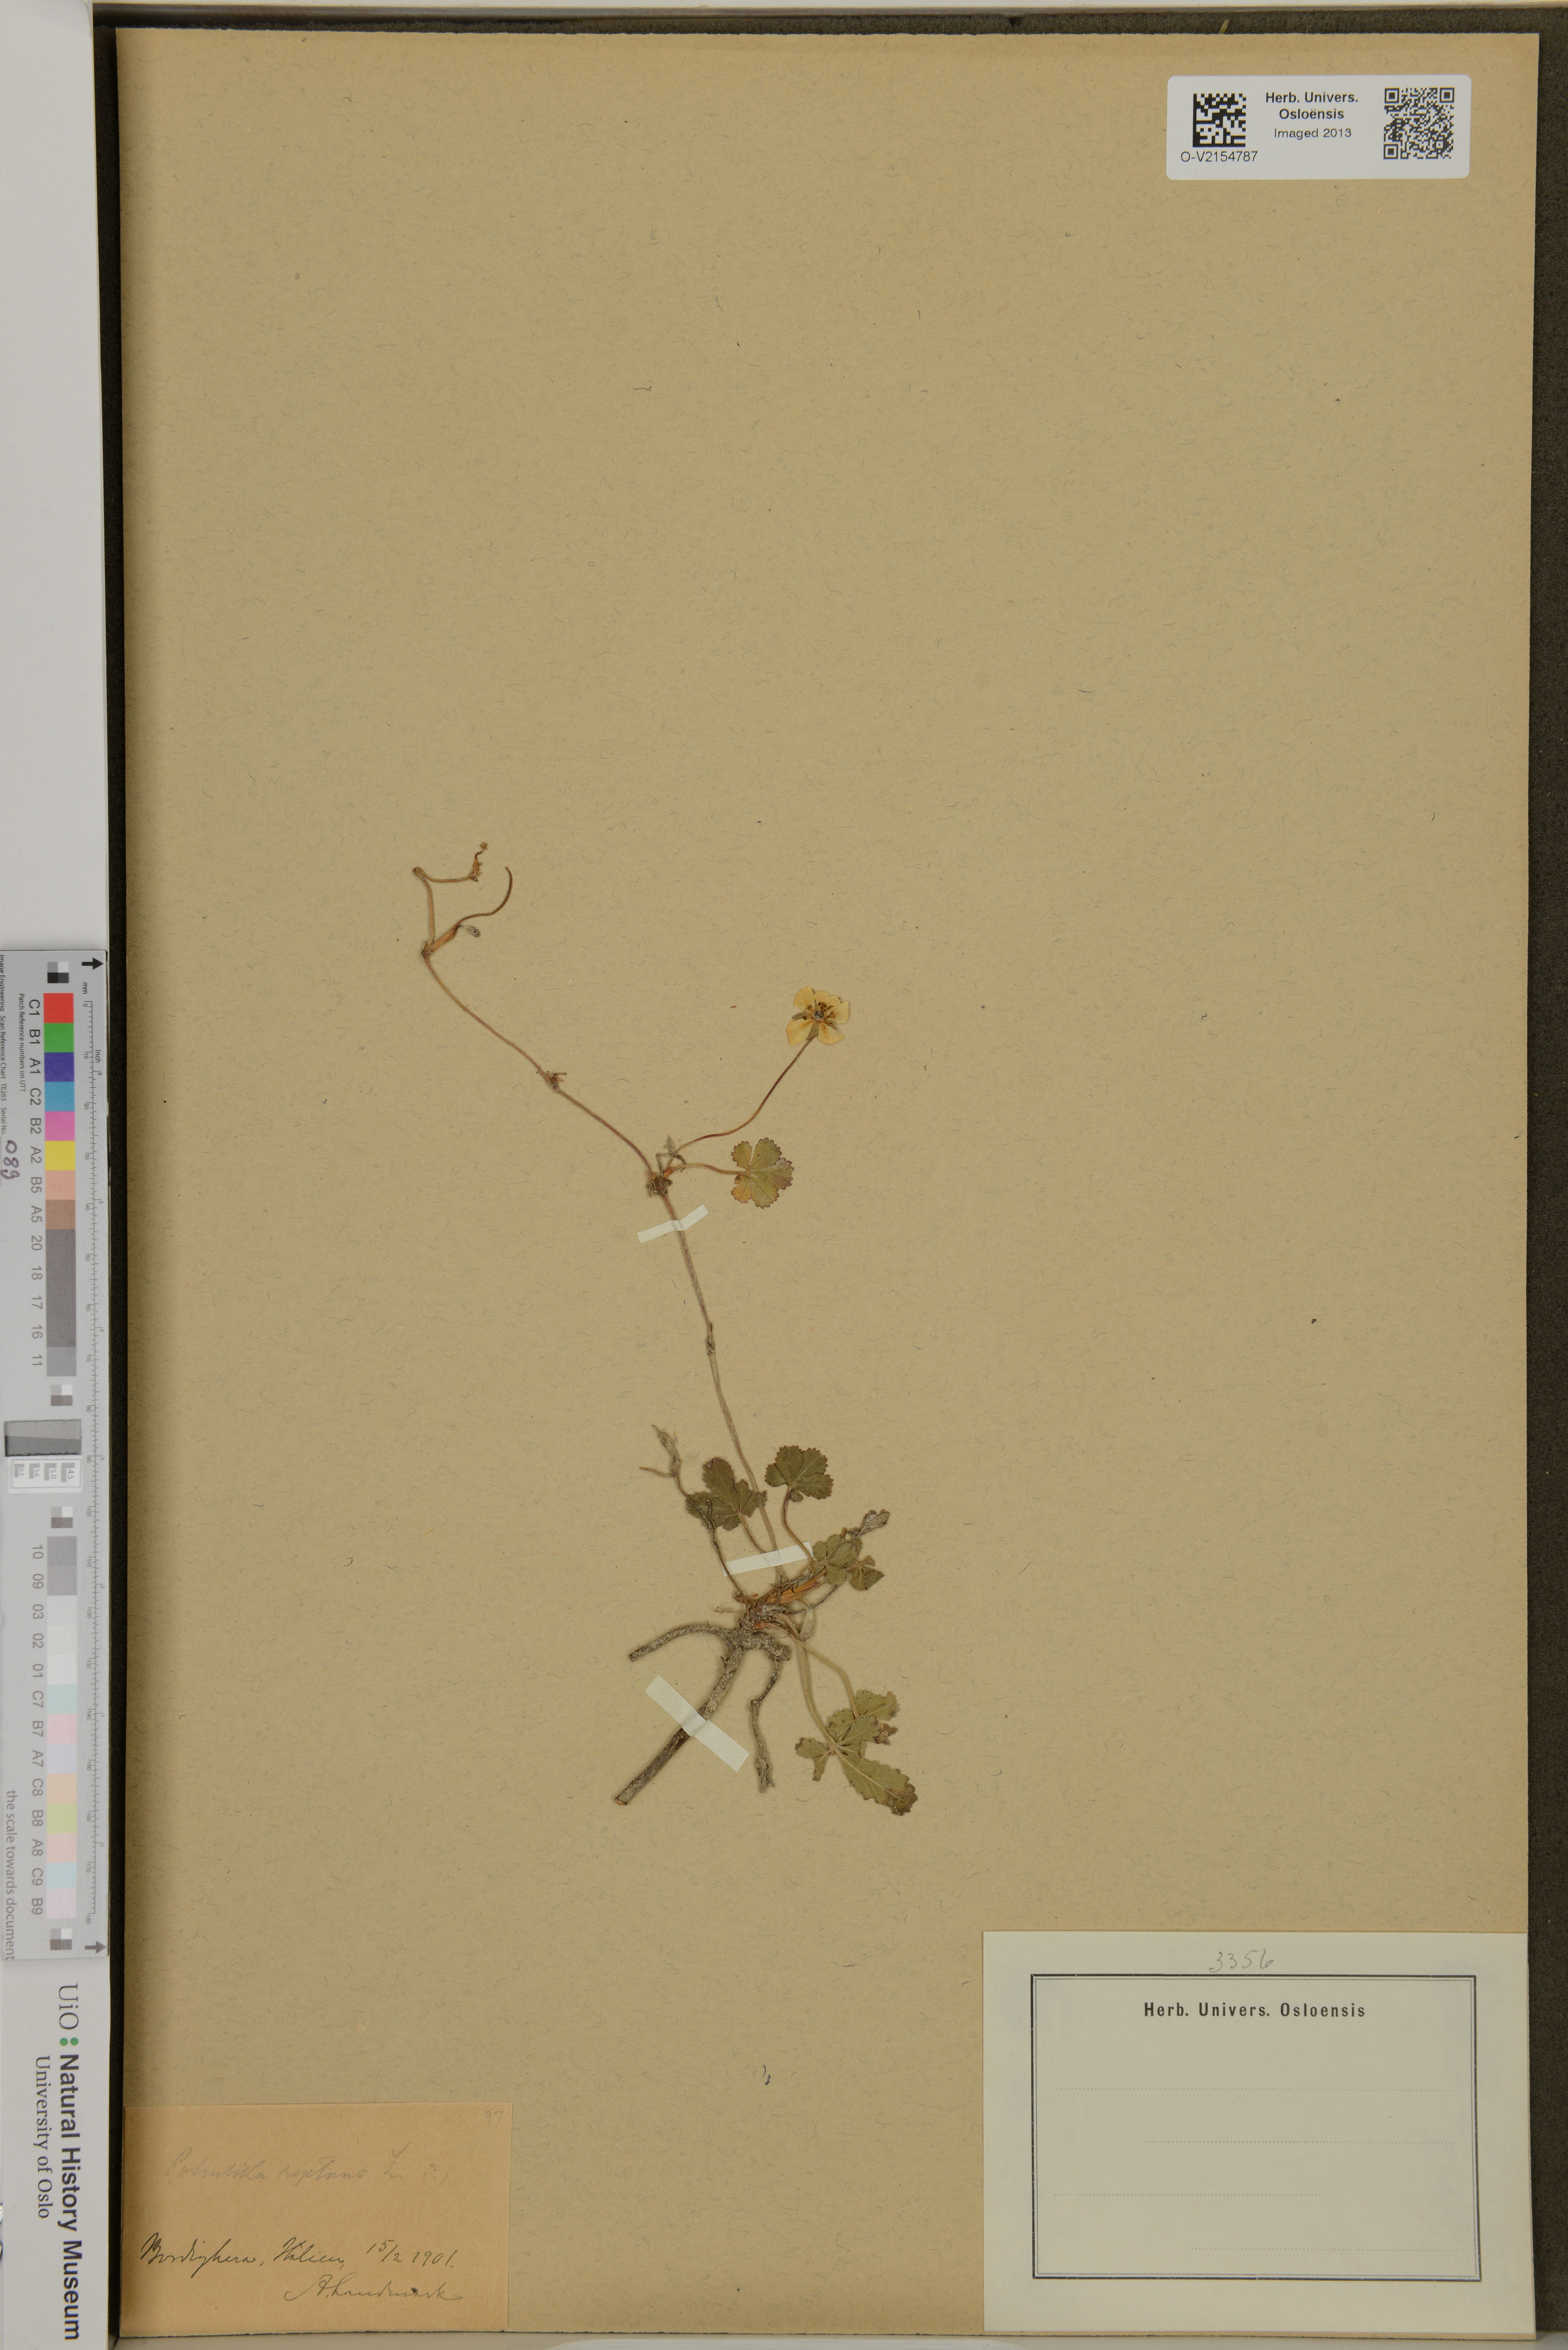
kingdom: Plantae
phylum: Tracheophyta
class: Magnoliopsida
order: Rosales
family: Rosaceae
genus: Potentilla
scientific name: Potentilla reptans
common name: Creeping cinquefoil
